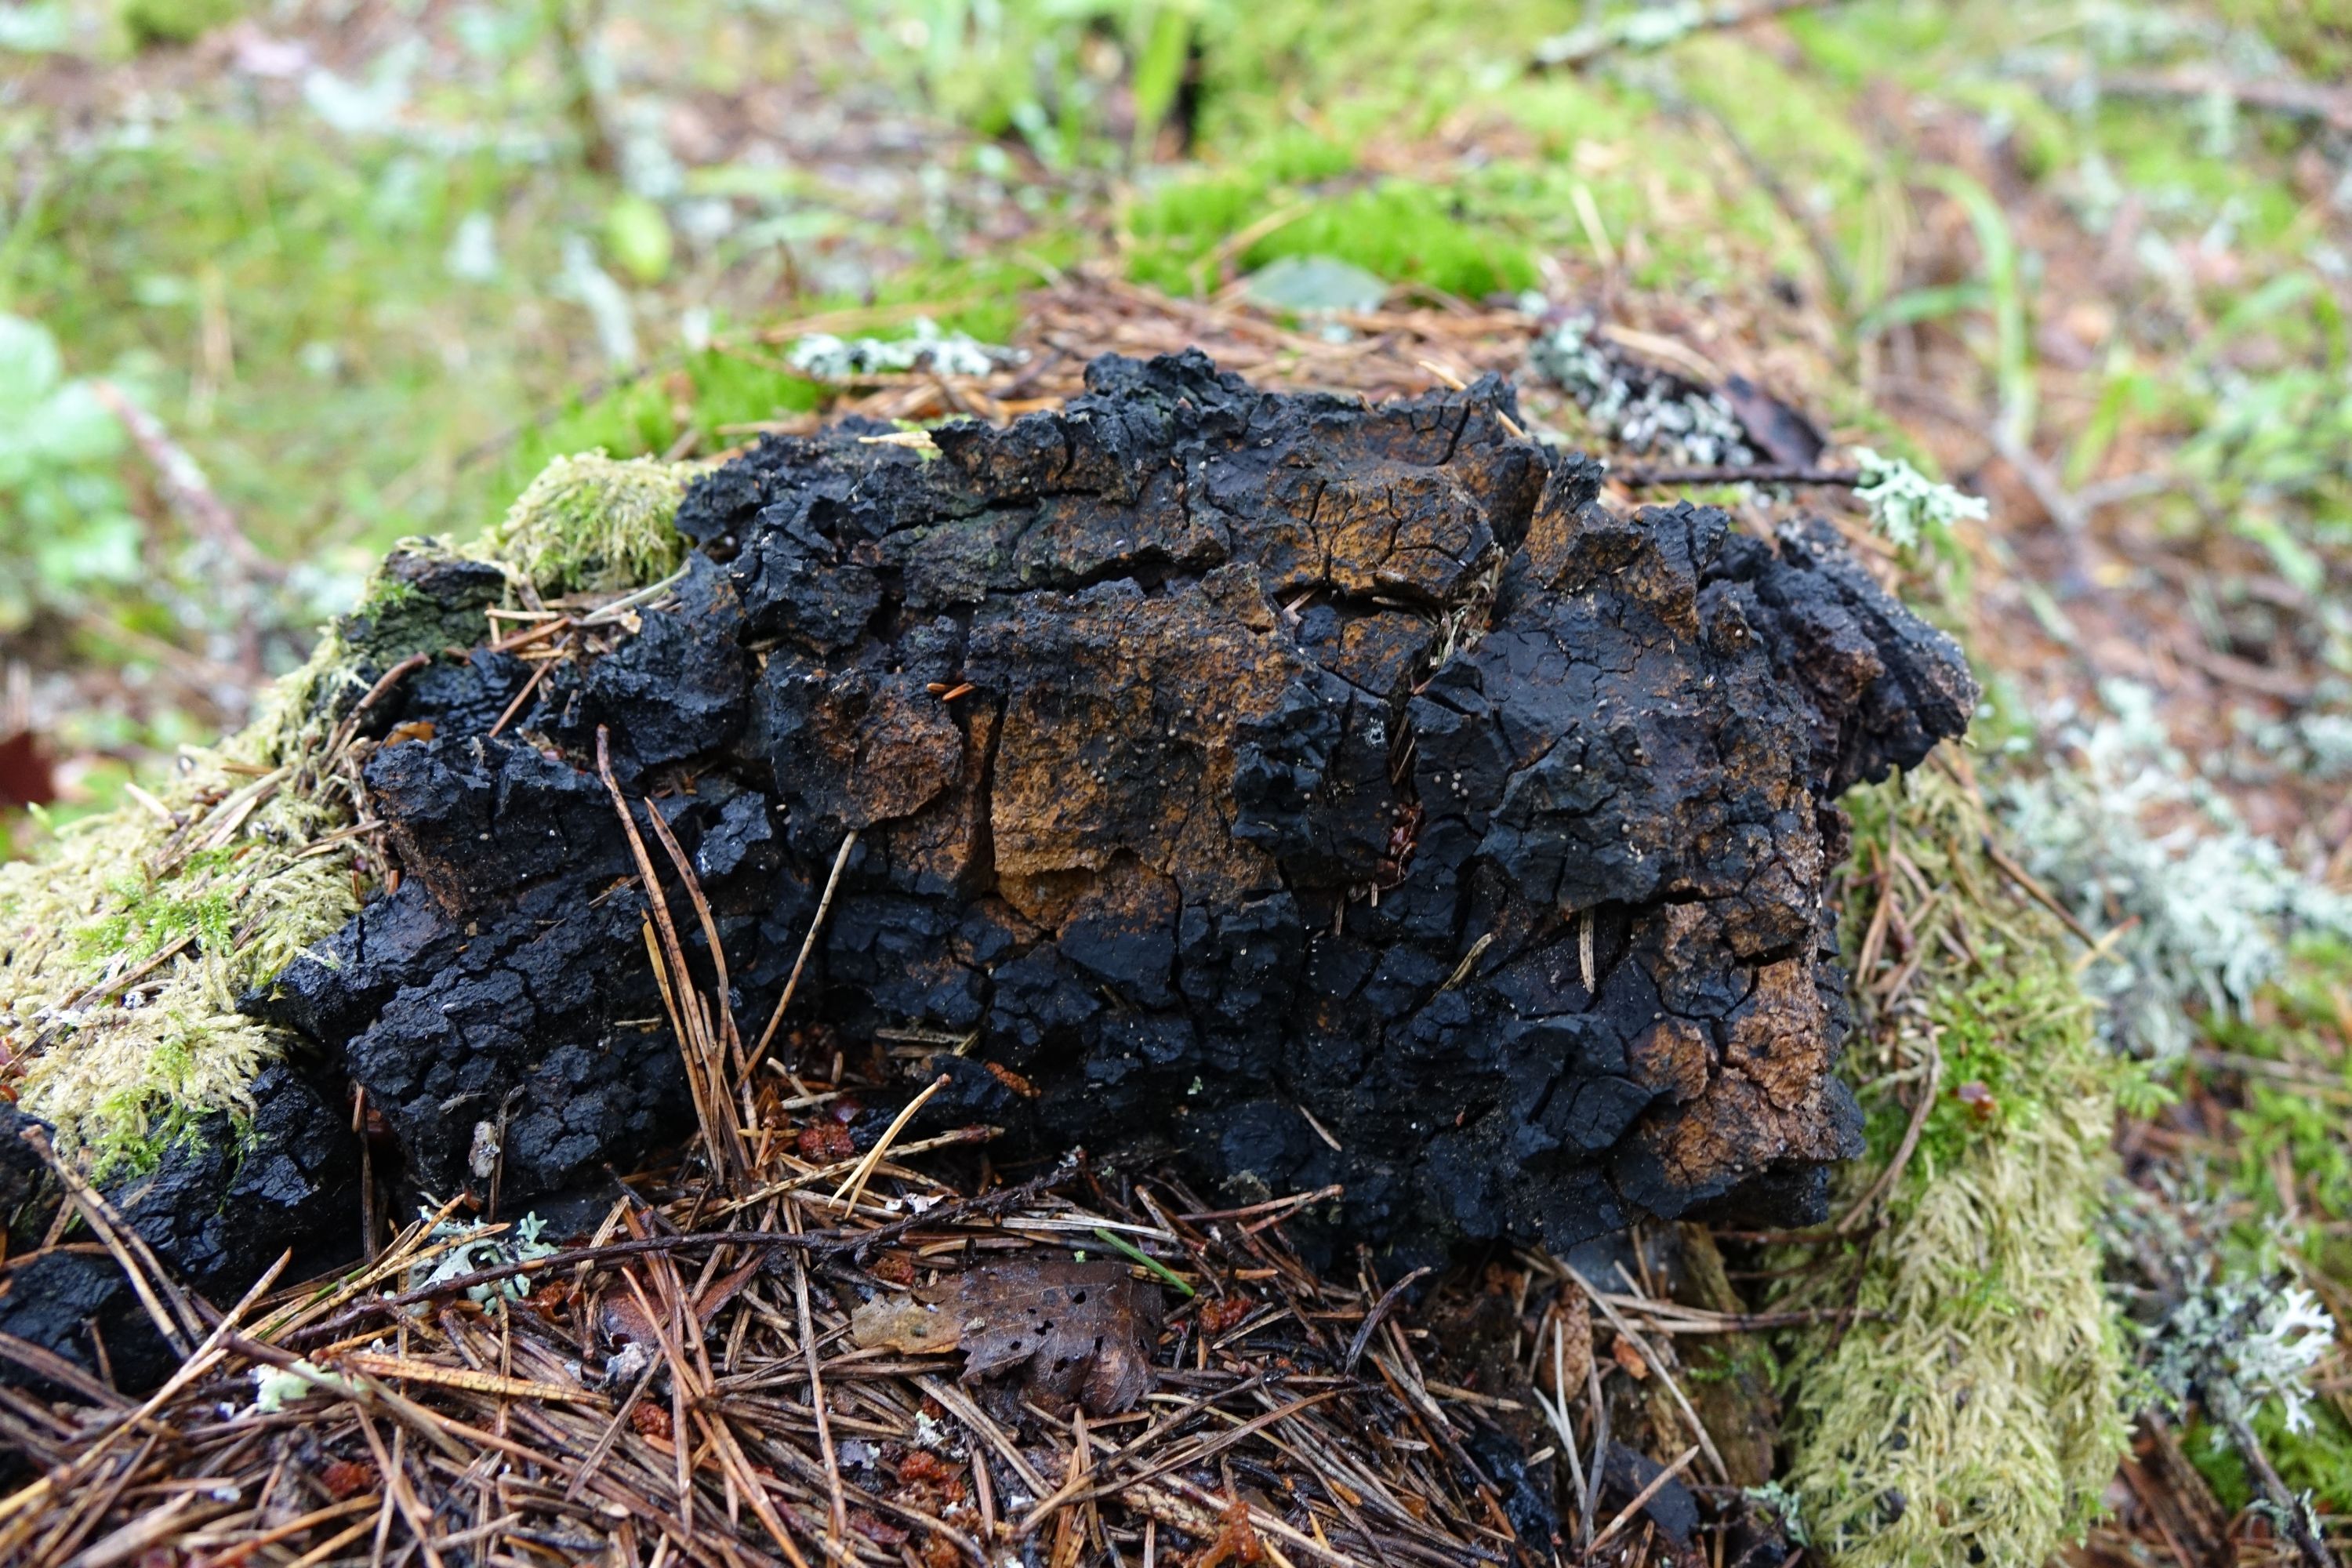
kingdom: Fungi
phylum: Basidiomycota
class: Agaricomycetes
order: Hymenochaetales
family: Hymenochaetaceae
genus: Inonotus
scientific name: Inonotus obliquus
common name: Chaga
